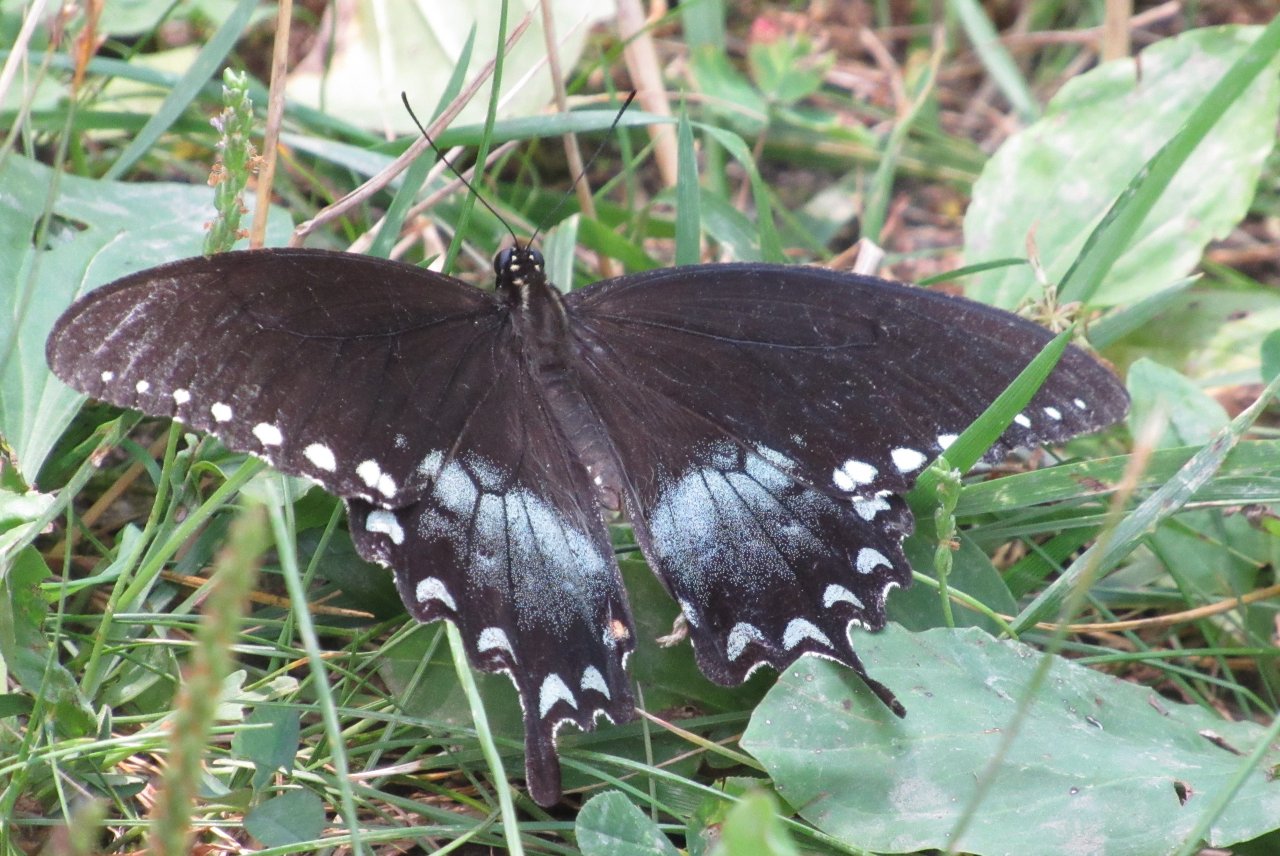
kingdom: Animalia
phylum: Arthropoda
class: Insecta
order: Lepidoptera
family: Papilionidae
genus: Pterourus
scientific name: Pterourus troilus
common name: Spicebush Swallowtail
